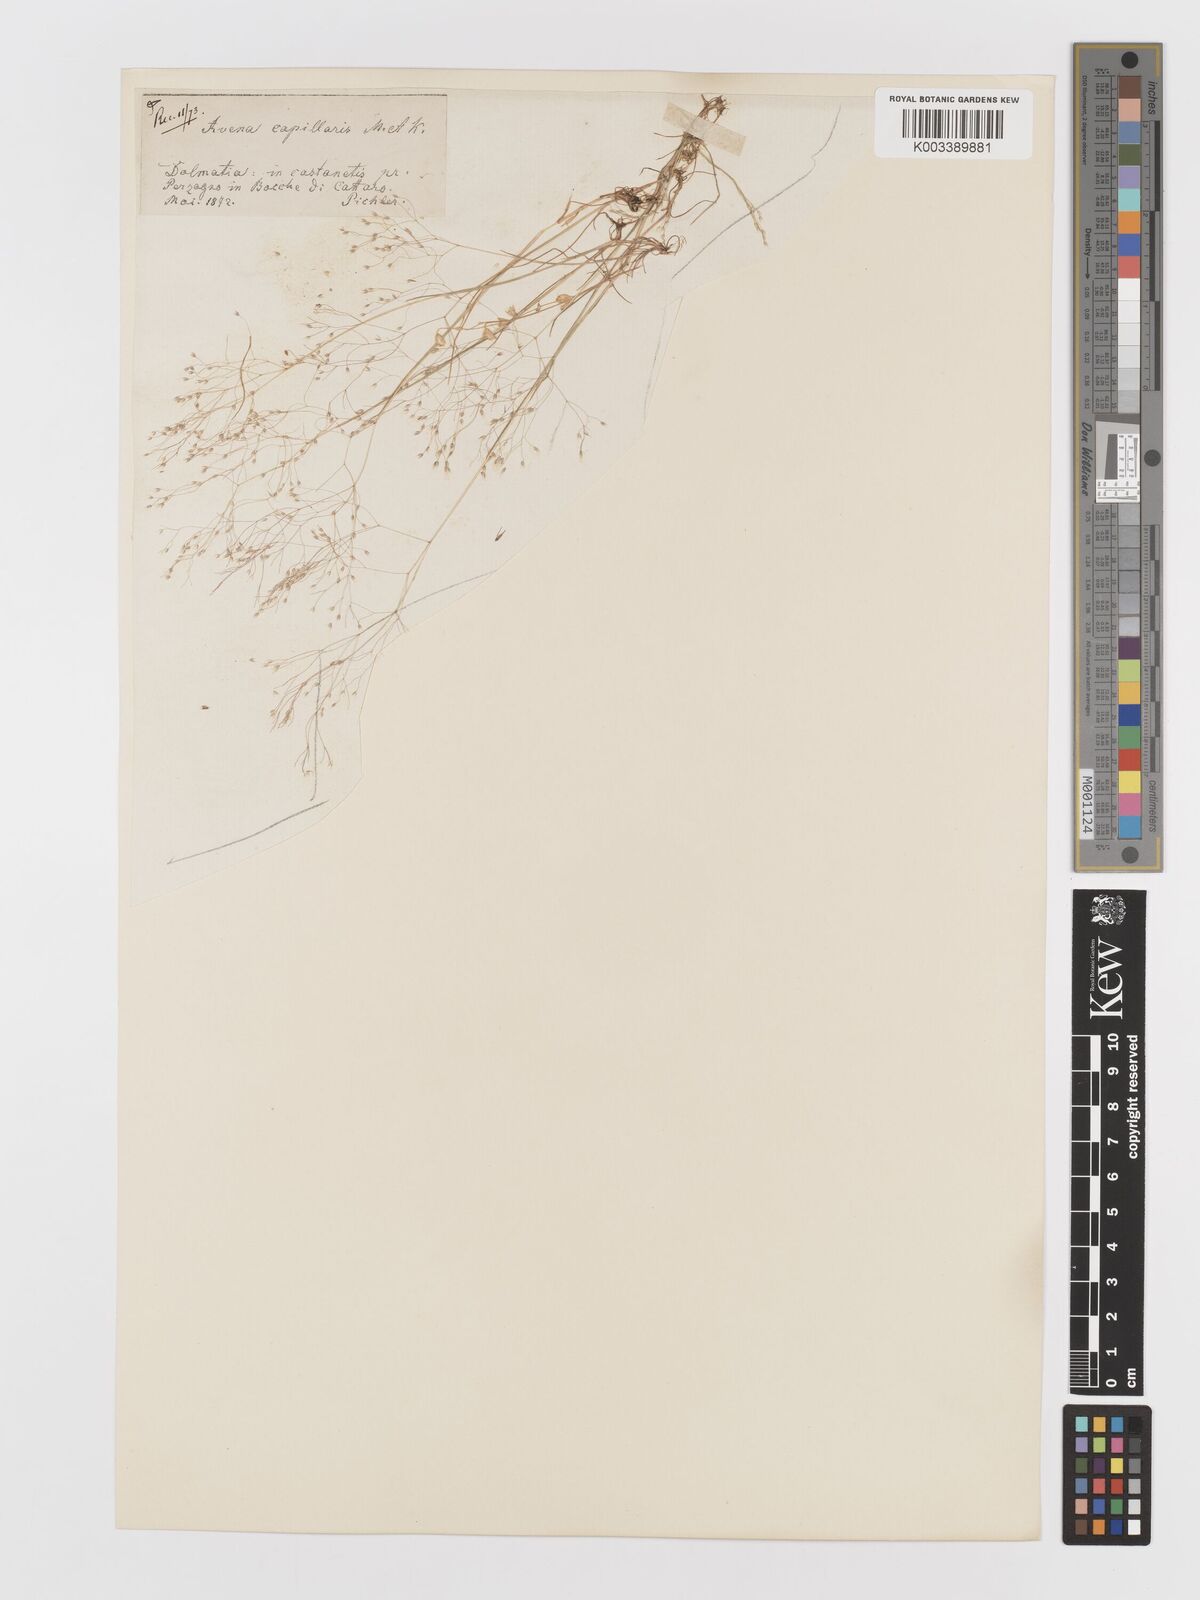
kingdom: Plantae
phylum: Tracheophyta
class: Liliopsida
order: Poales
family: Poaceae
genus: Aira
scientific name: Aira elegans
